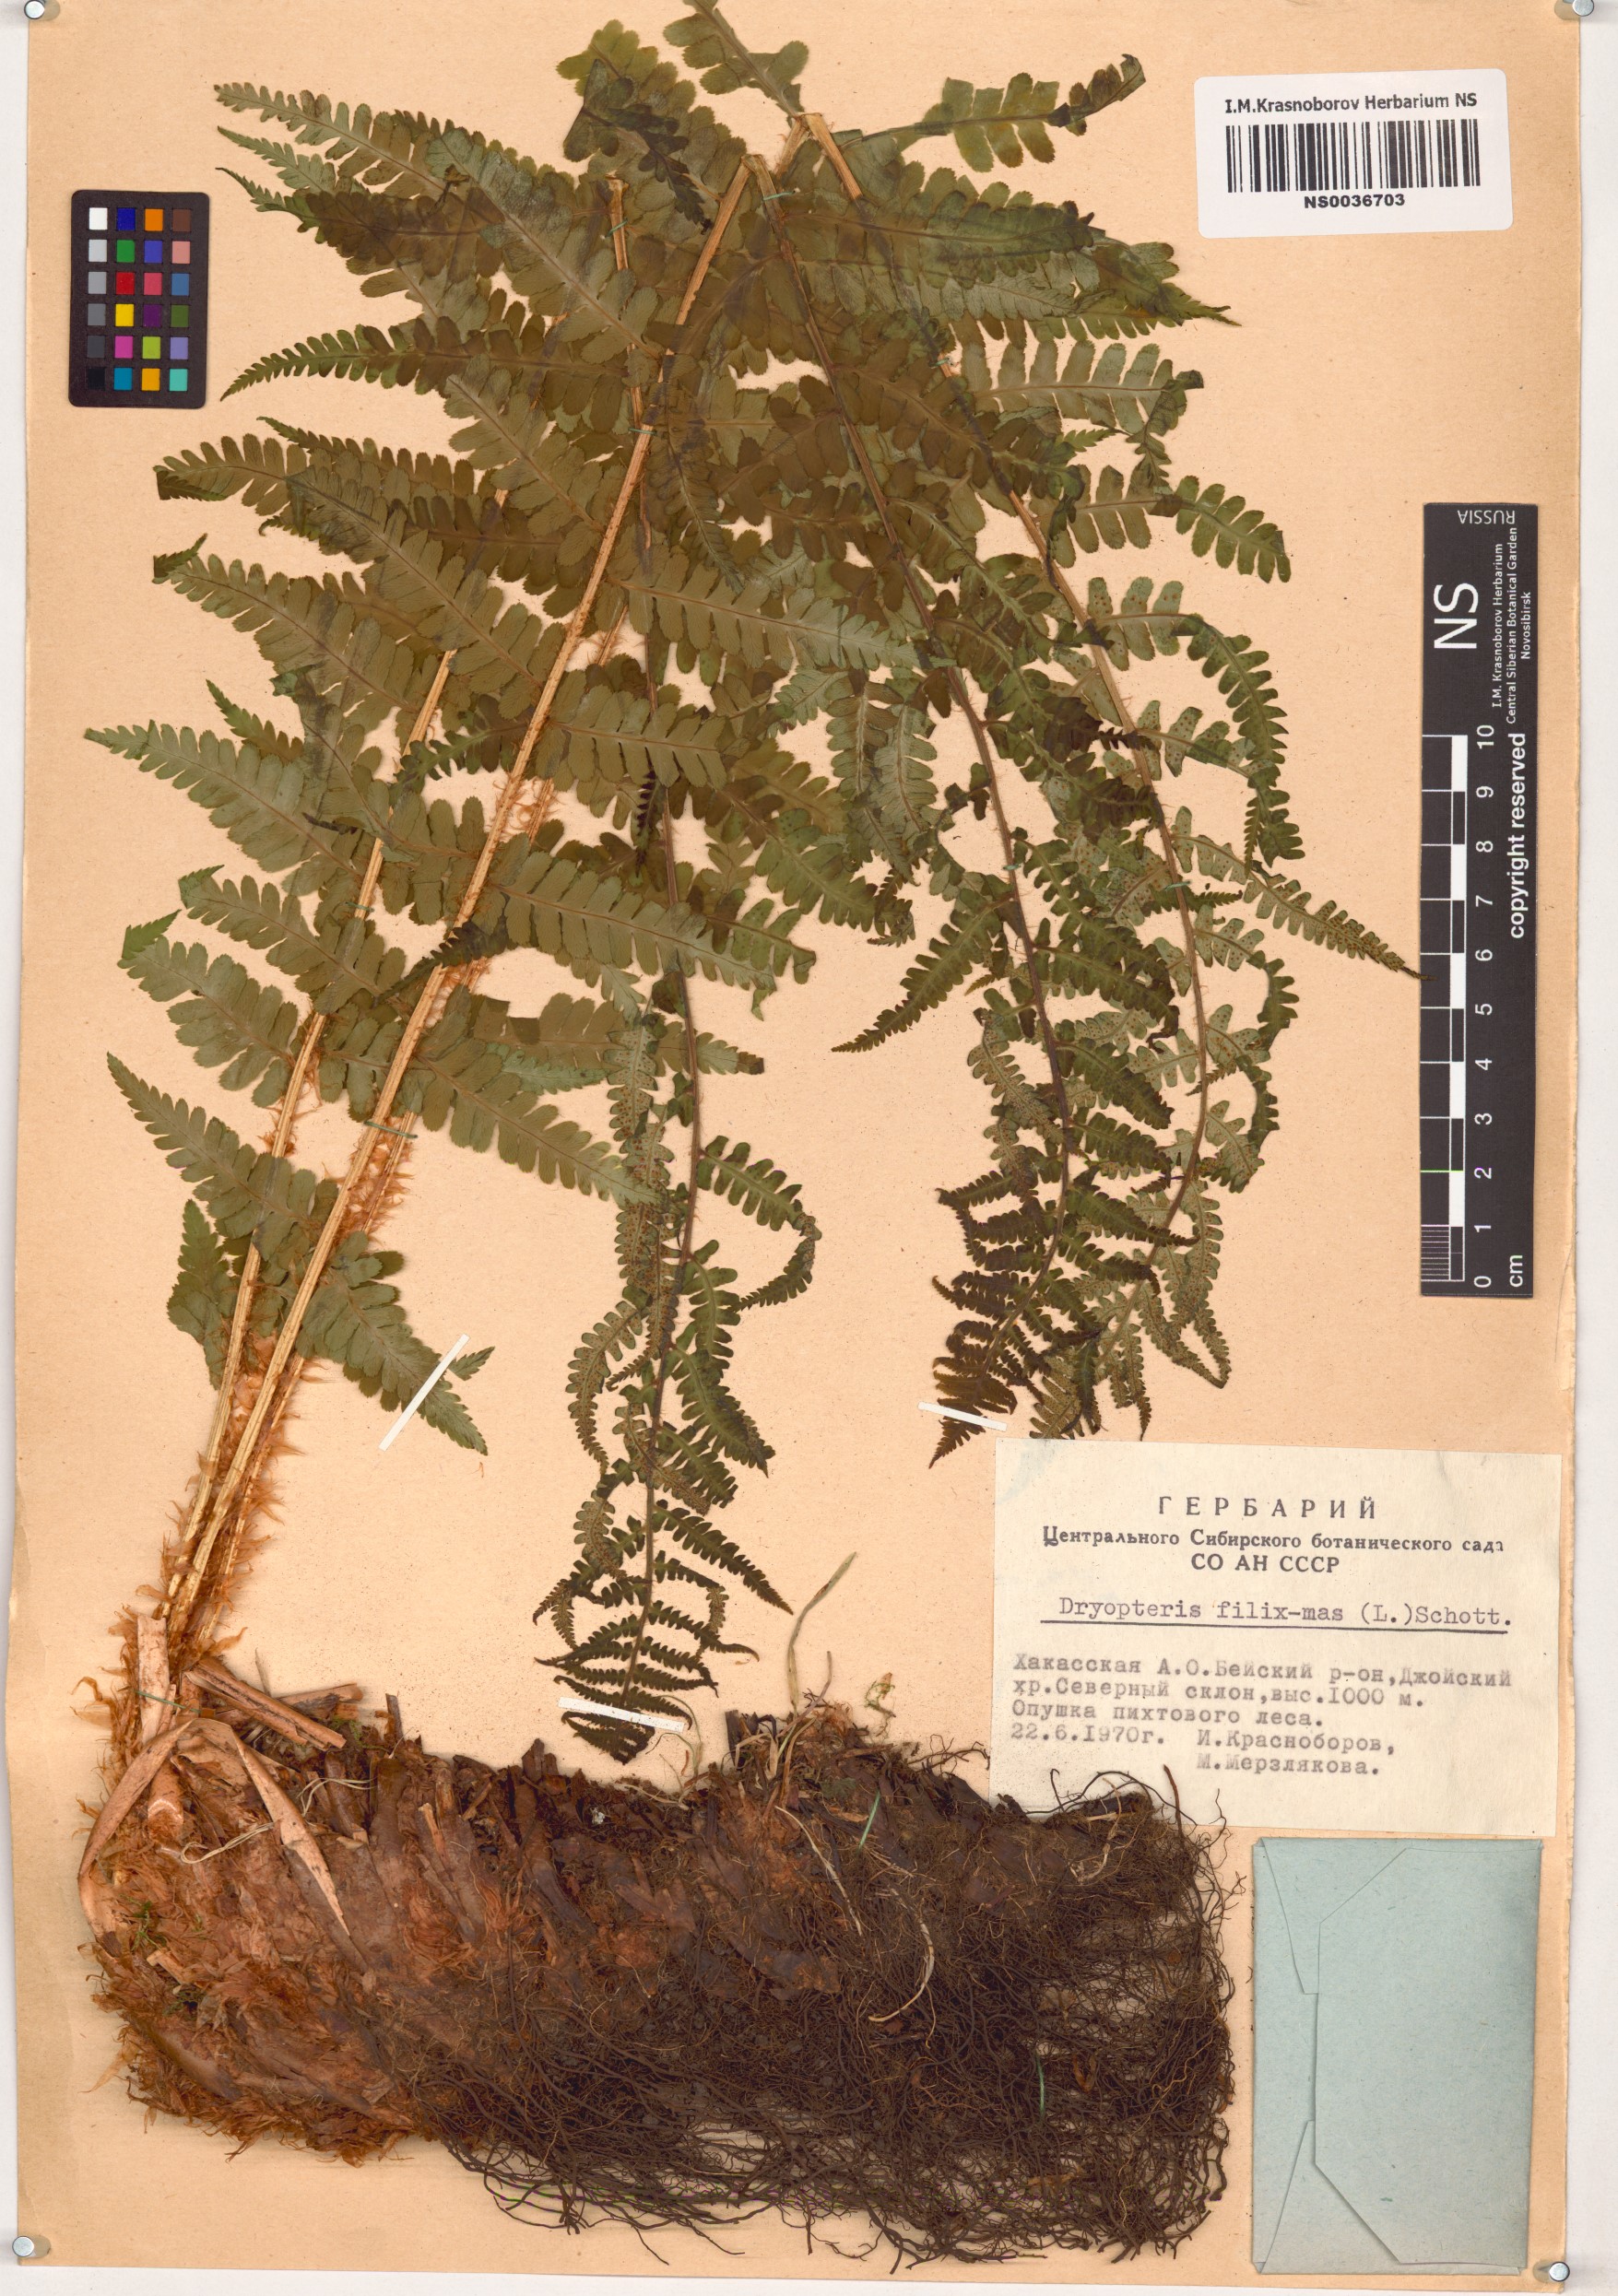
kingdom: Plantae
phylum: Tracheophyta
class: Polypodiopsida
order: Polypodiales
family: Dryopteridaceae
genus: Dryopteris
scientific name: Dryopteris filix-mas
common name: Male fern
